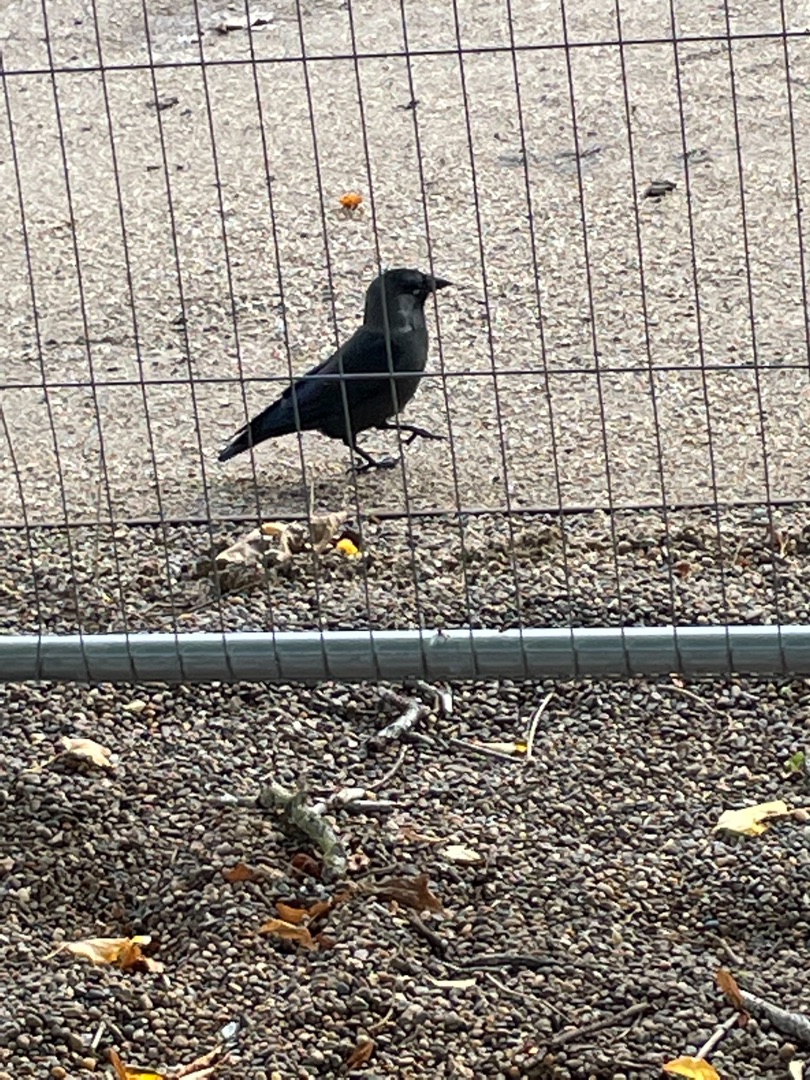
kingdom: Animalia
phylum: Chordata
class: Aves
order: Passeriformes
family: Corvidae
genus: Coloeus
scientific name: Coloeus monedula
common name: Allike
